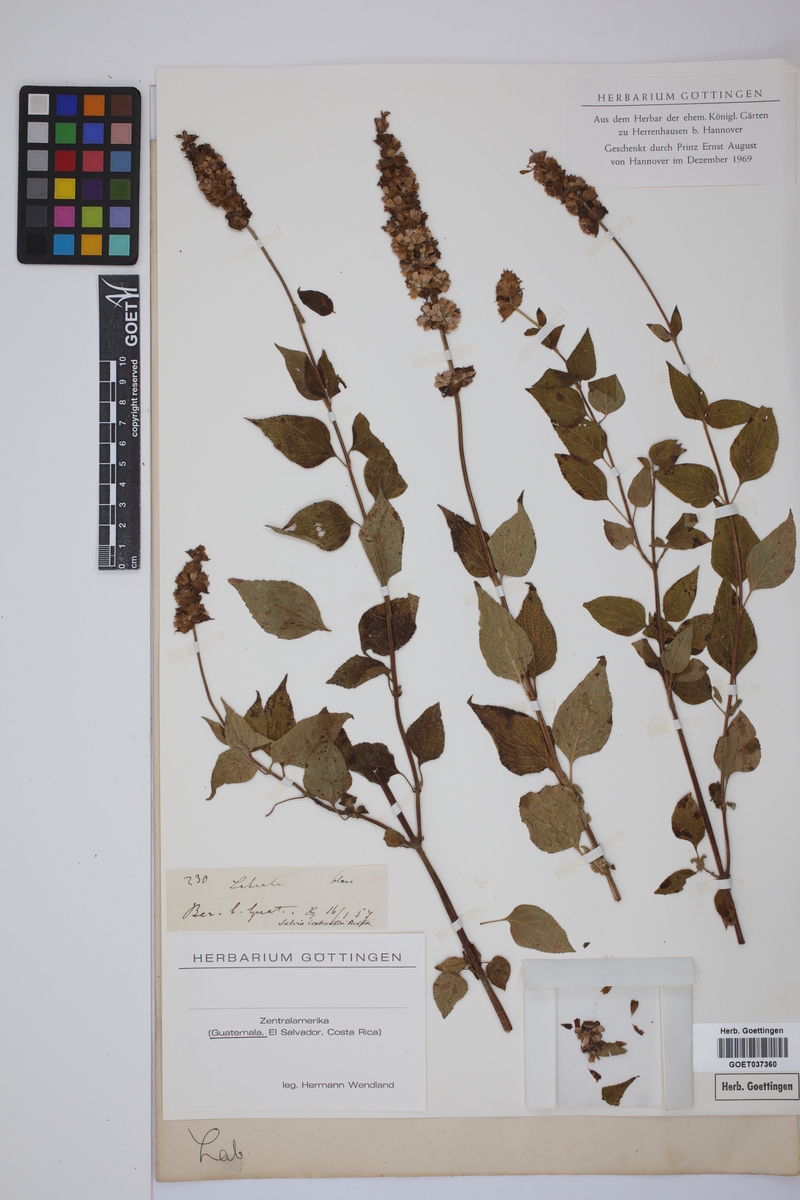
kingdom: Plantae
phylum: Tracheophyta
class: Magnoliopsida
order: Lamiales
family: Lamiaceae
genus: Salvia
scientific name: Salvia
